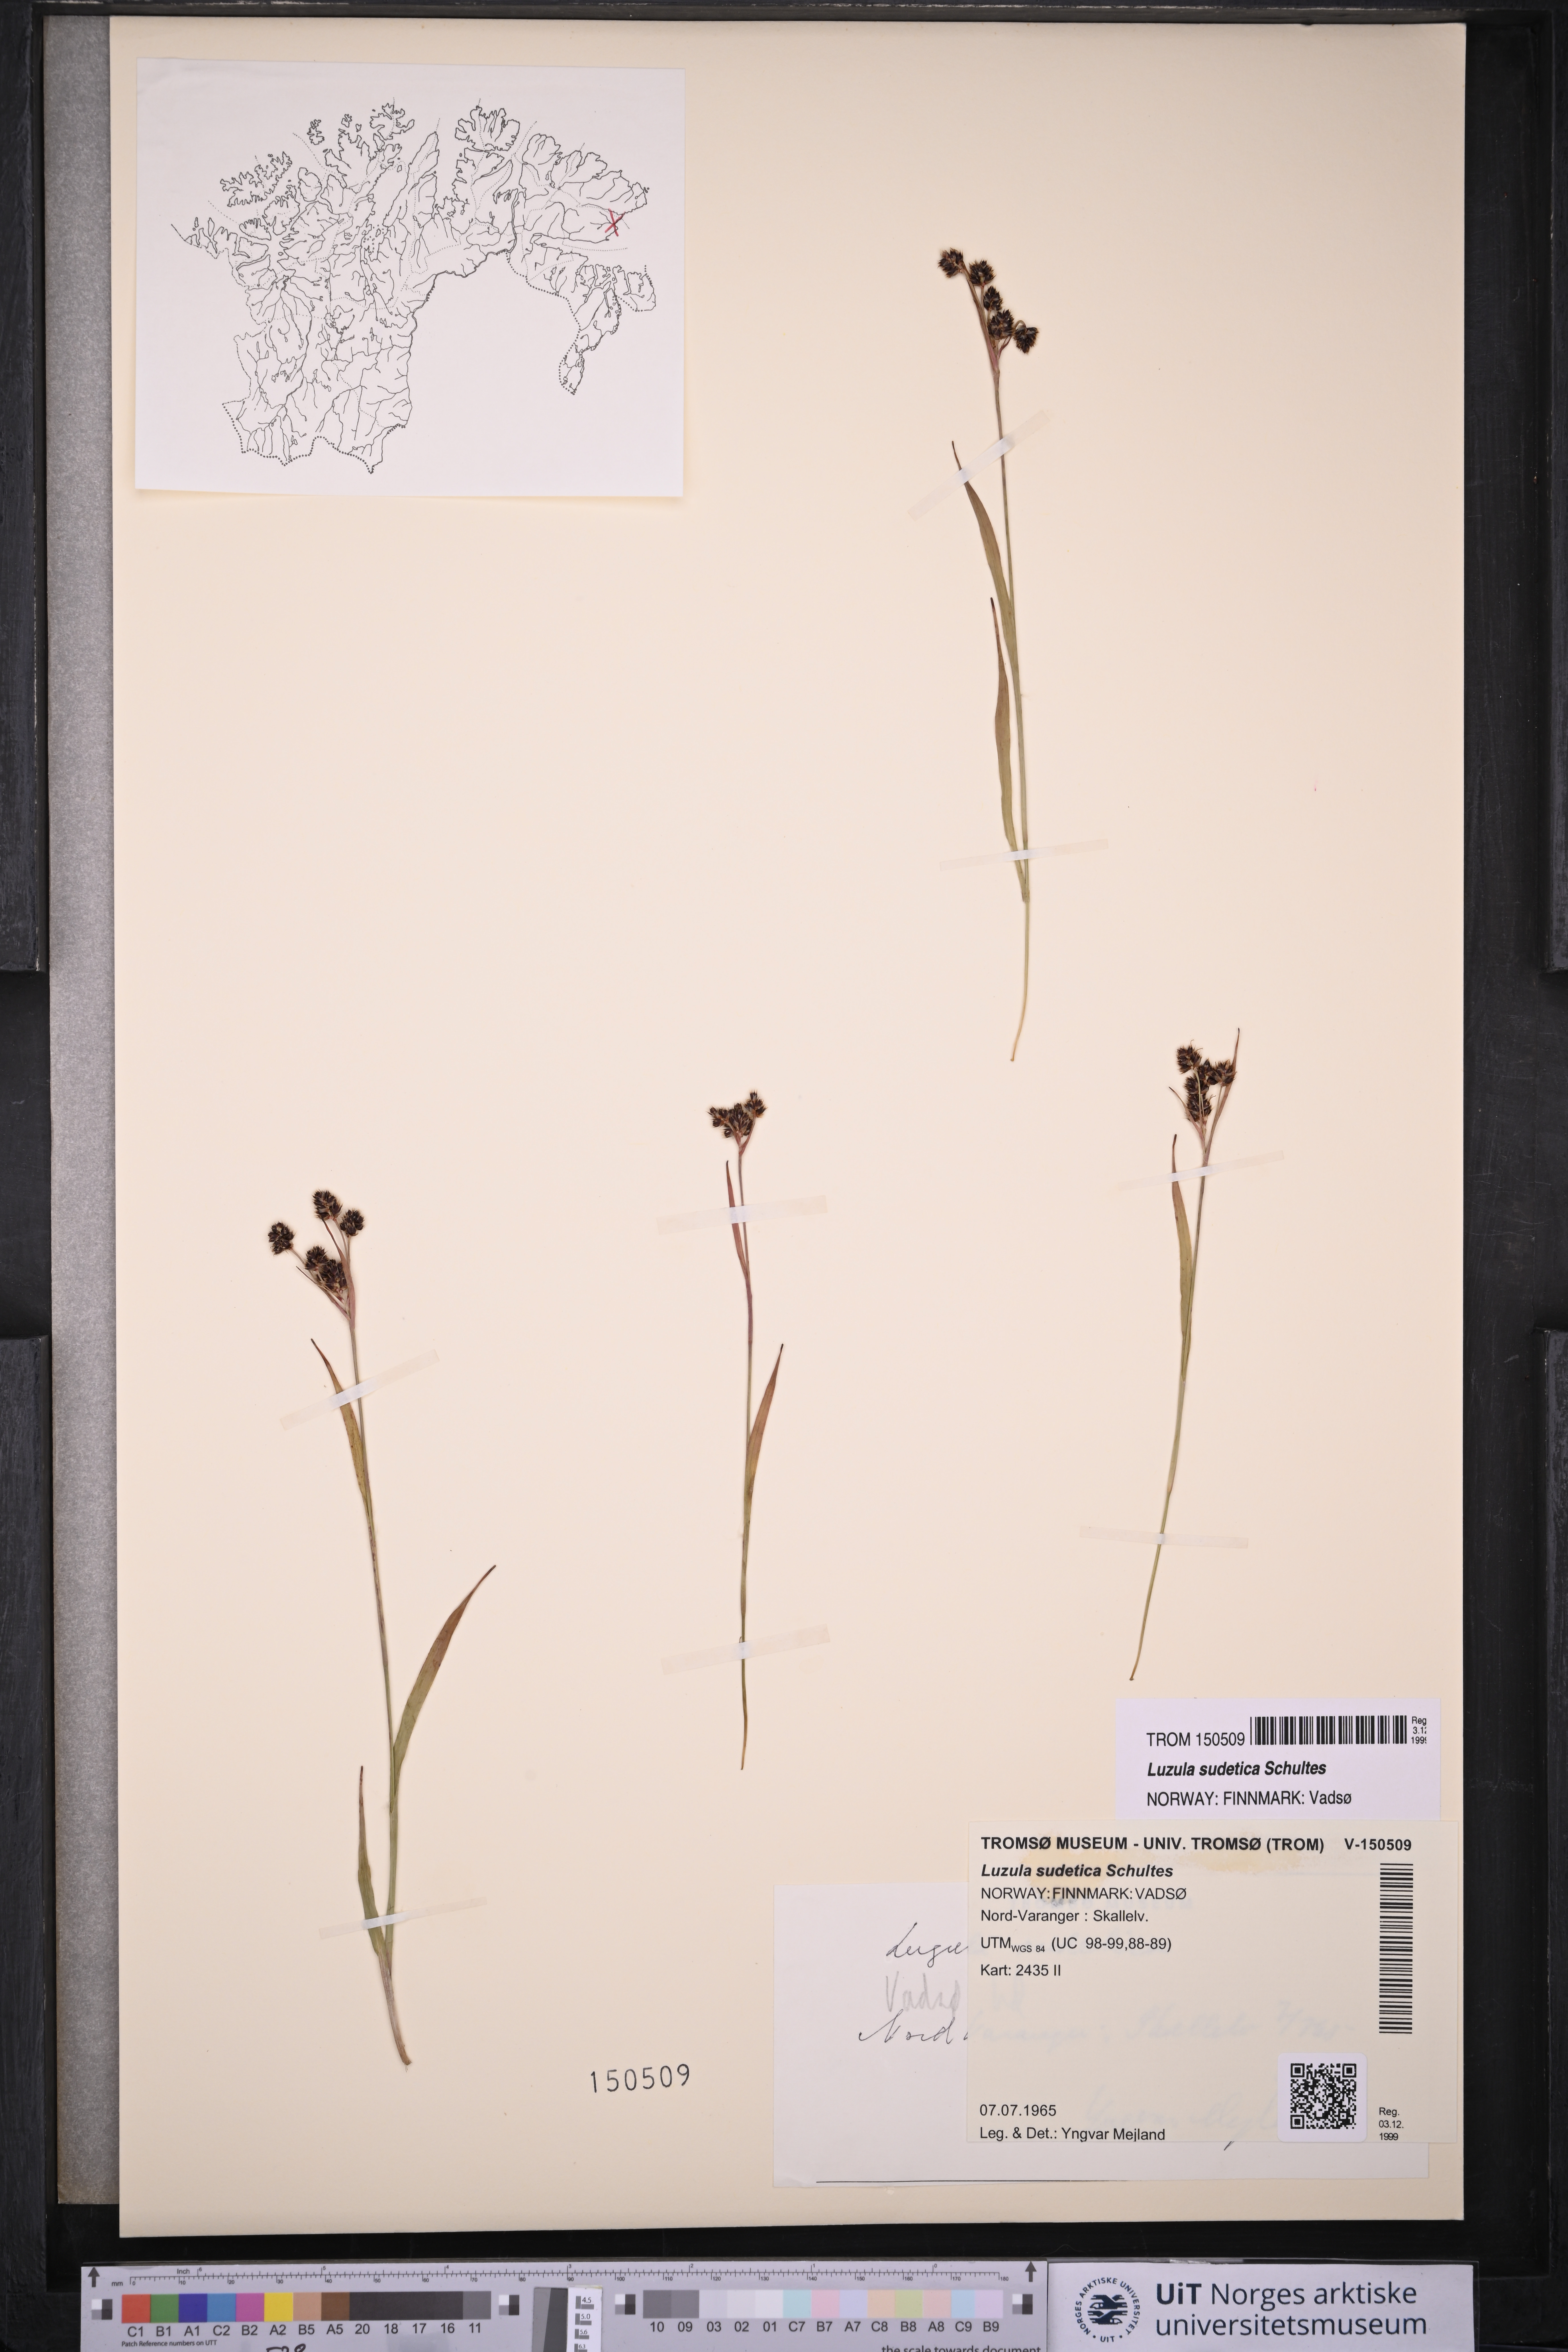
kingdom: Plantae
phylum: Tracheophyta
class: Liliopsida
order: Poales
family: Juncaceae
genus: Luzula
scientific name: Luzula sudetica
